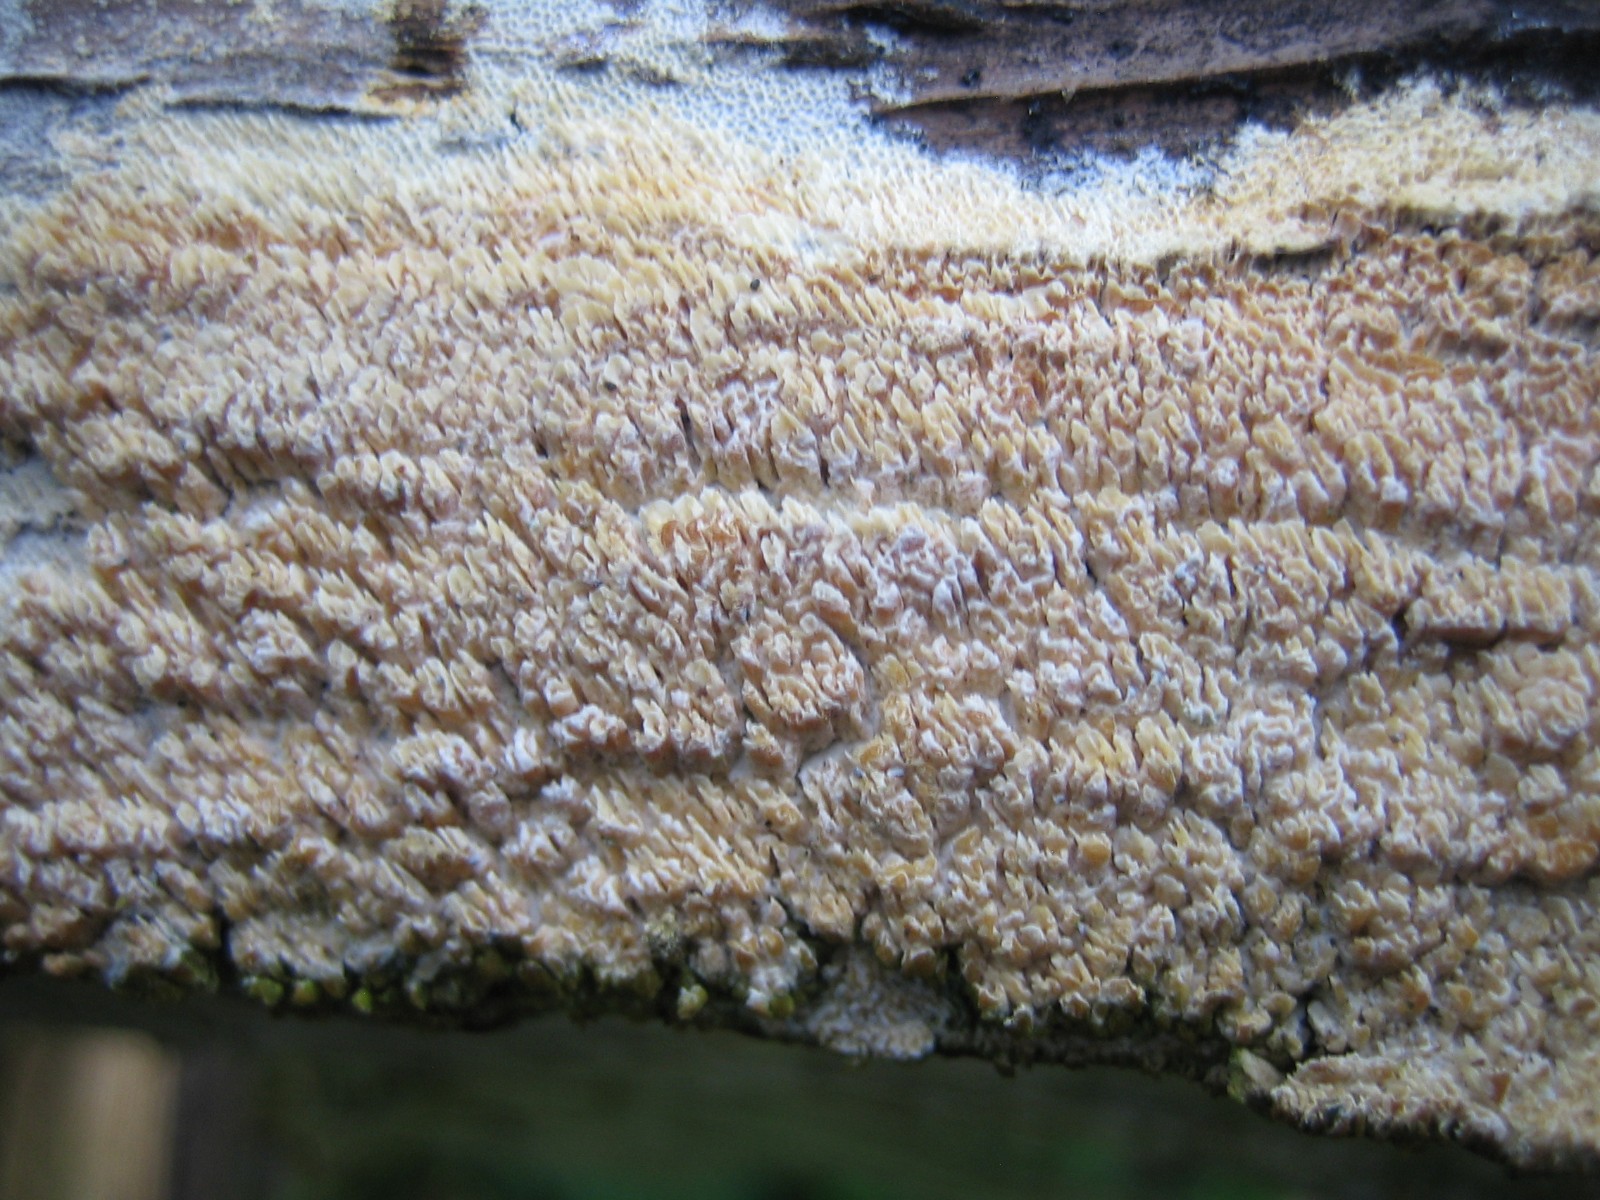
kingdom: Fungi
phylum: Basidiomycota
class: Agaricomycetes
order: Corticiales
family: Corticiaceae
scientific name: Corticiaceae
